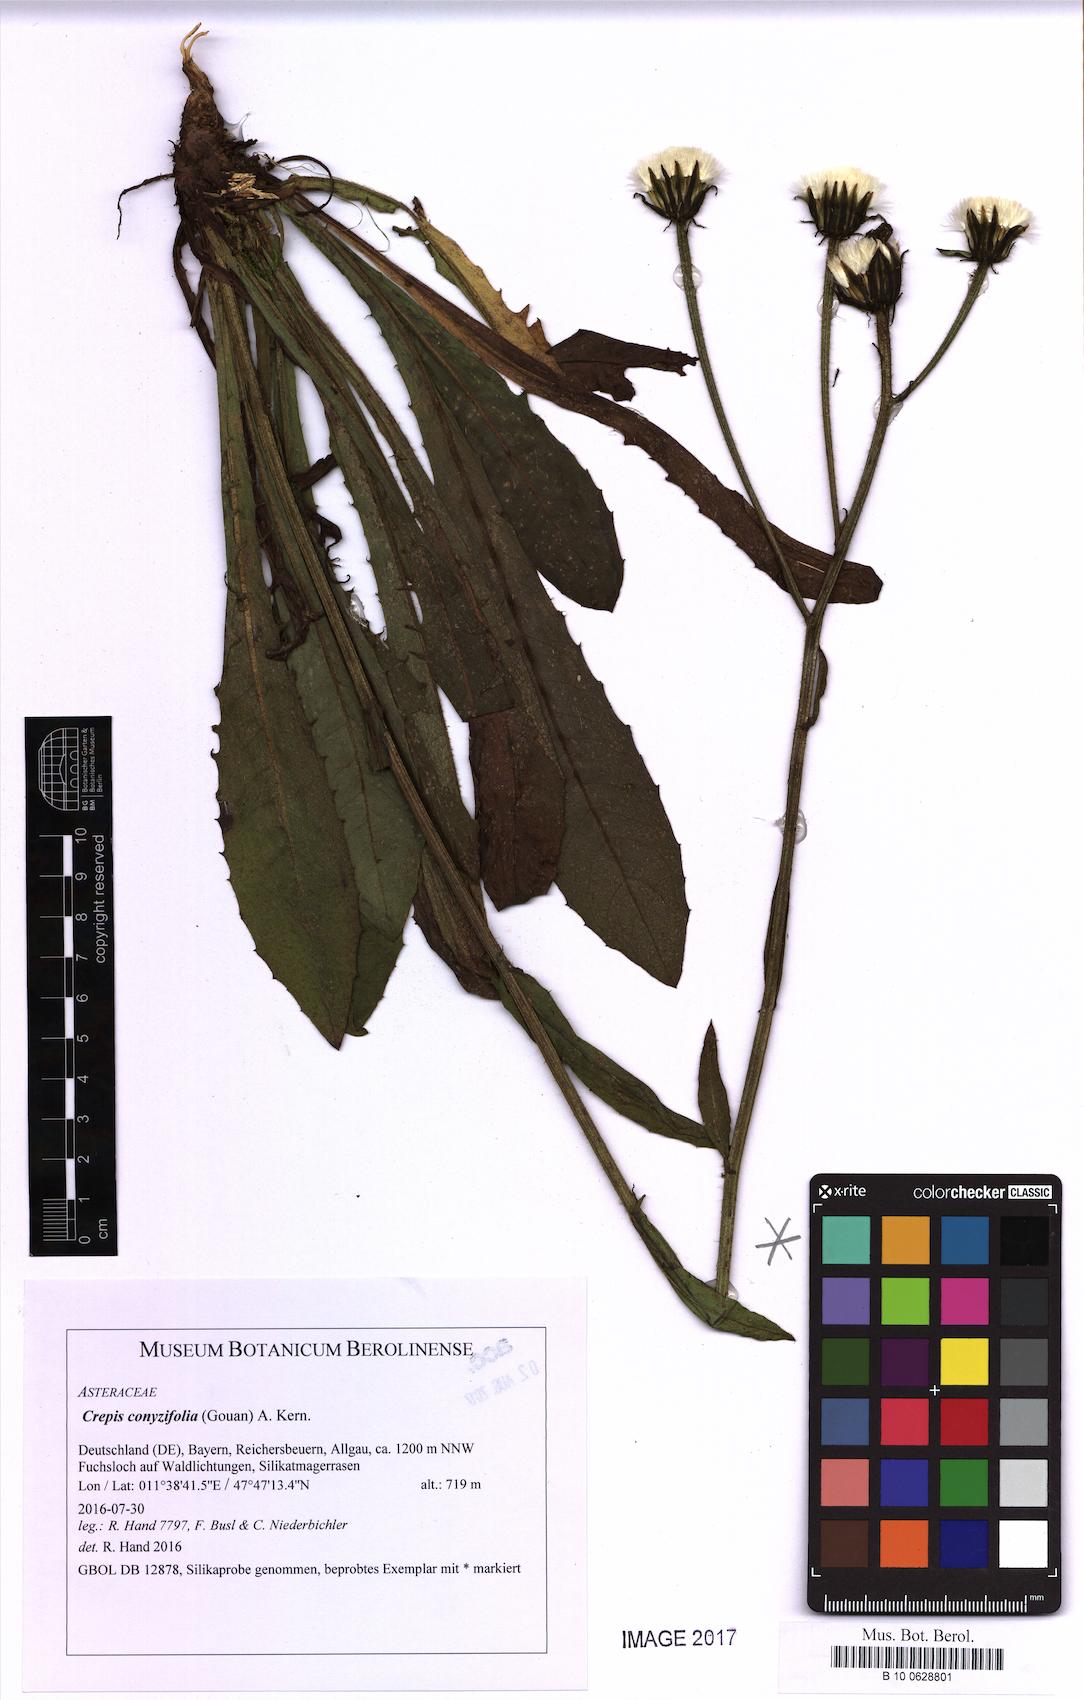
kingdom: Plantae
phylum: Tracheophyta
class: Magnoliopsida
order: Asterales
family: Asteraceae
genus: Crepis
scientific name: Crepis blattarioides
